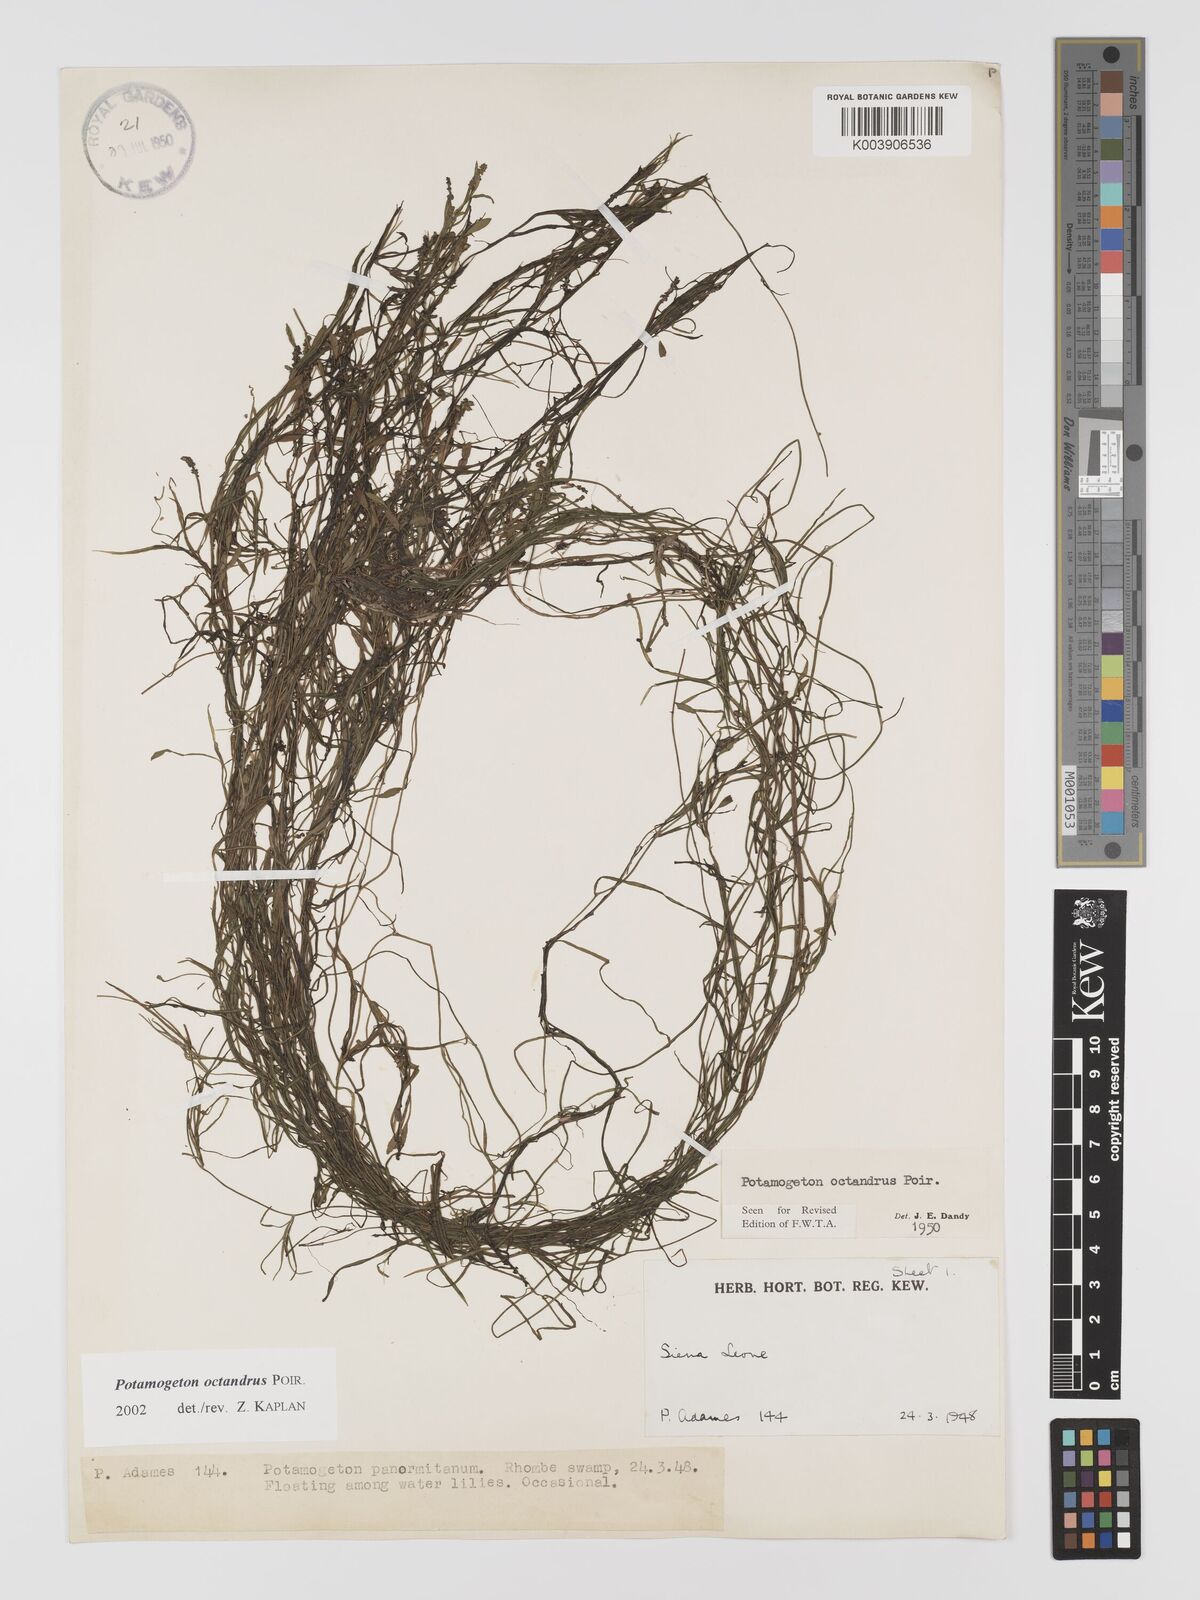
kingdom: Plantae
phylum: Tracheophyta
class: Liliopsida
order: Alismatales
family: Potamogetonaceae
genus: Potamogeton
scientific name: Potamogeton octandrus
